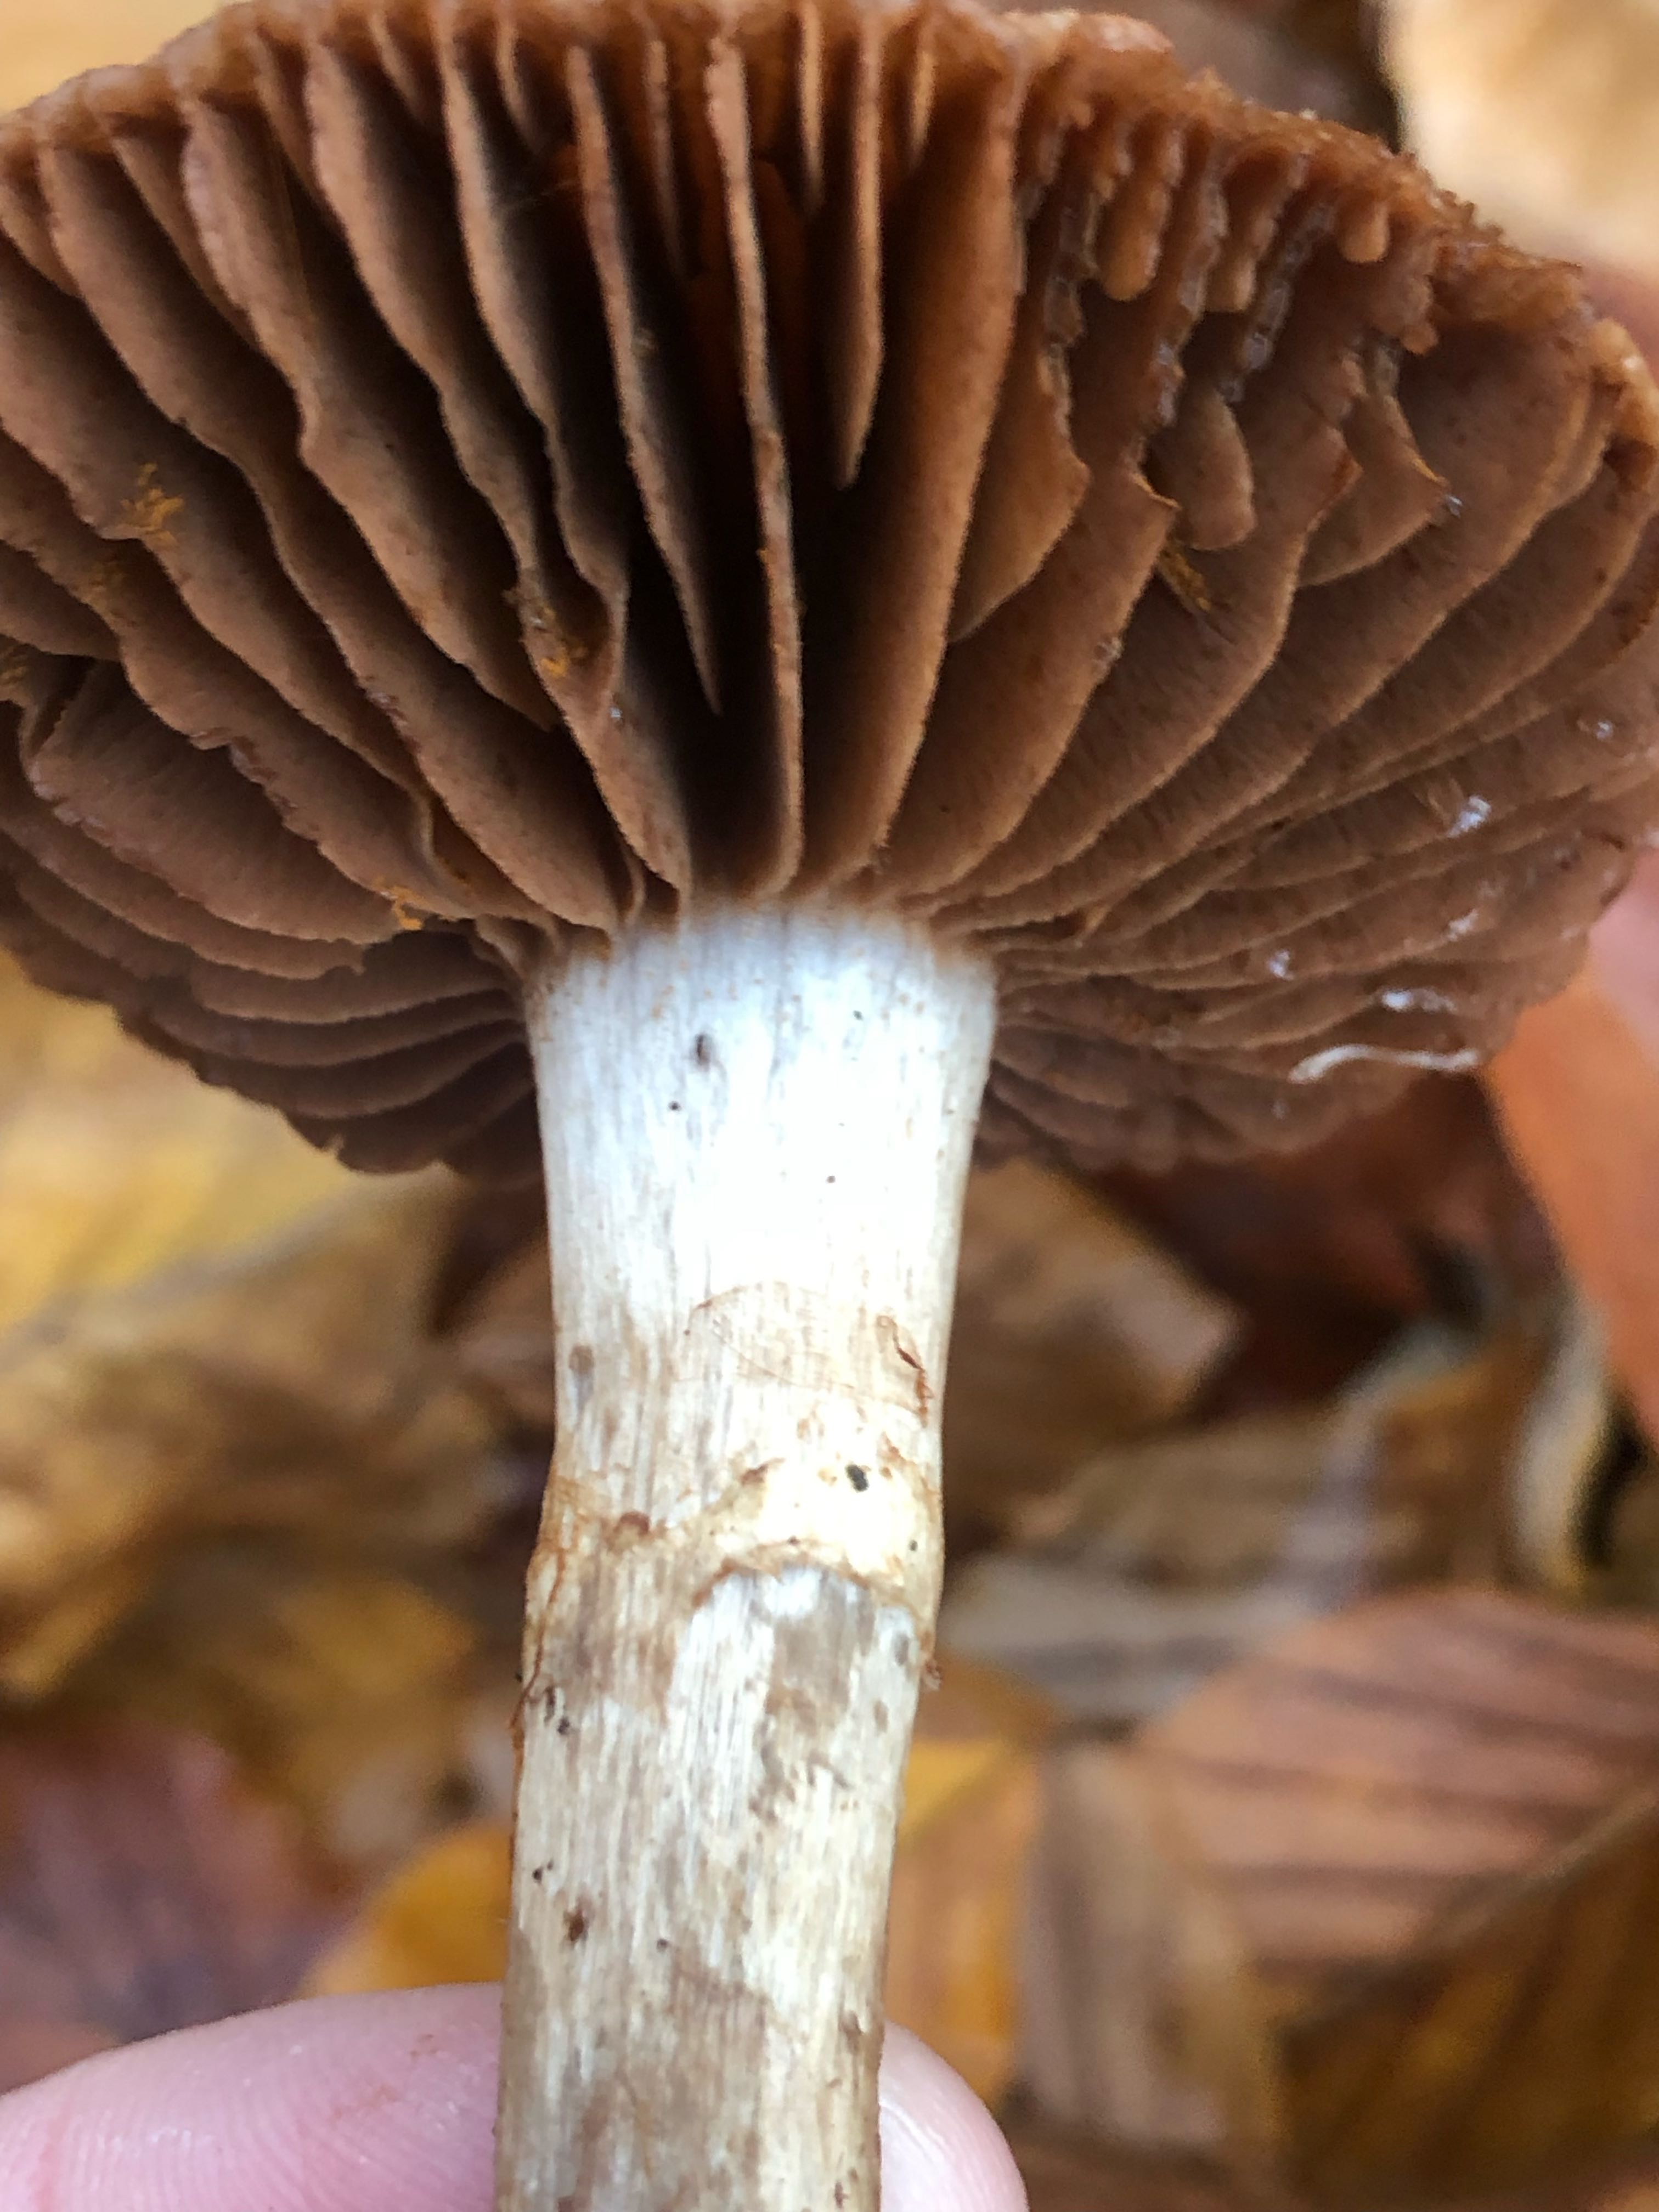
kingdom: Fungi
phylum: Basidiomycota
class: Agaricomycetes
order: Agaricales
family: Cortinariaceae
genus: Cortinarius
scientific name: Cortinarius
